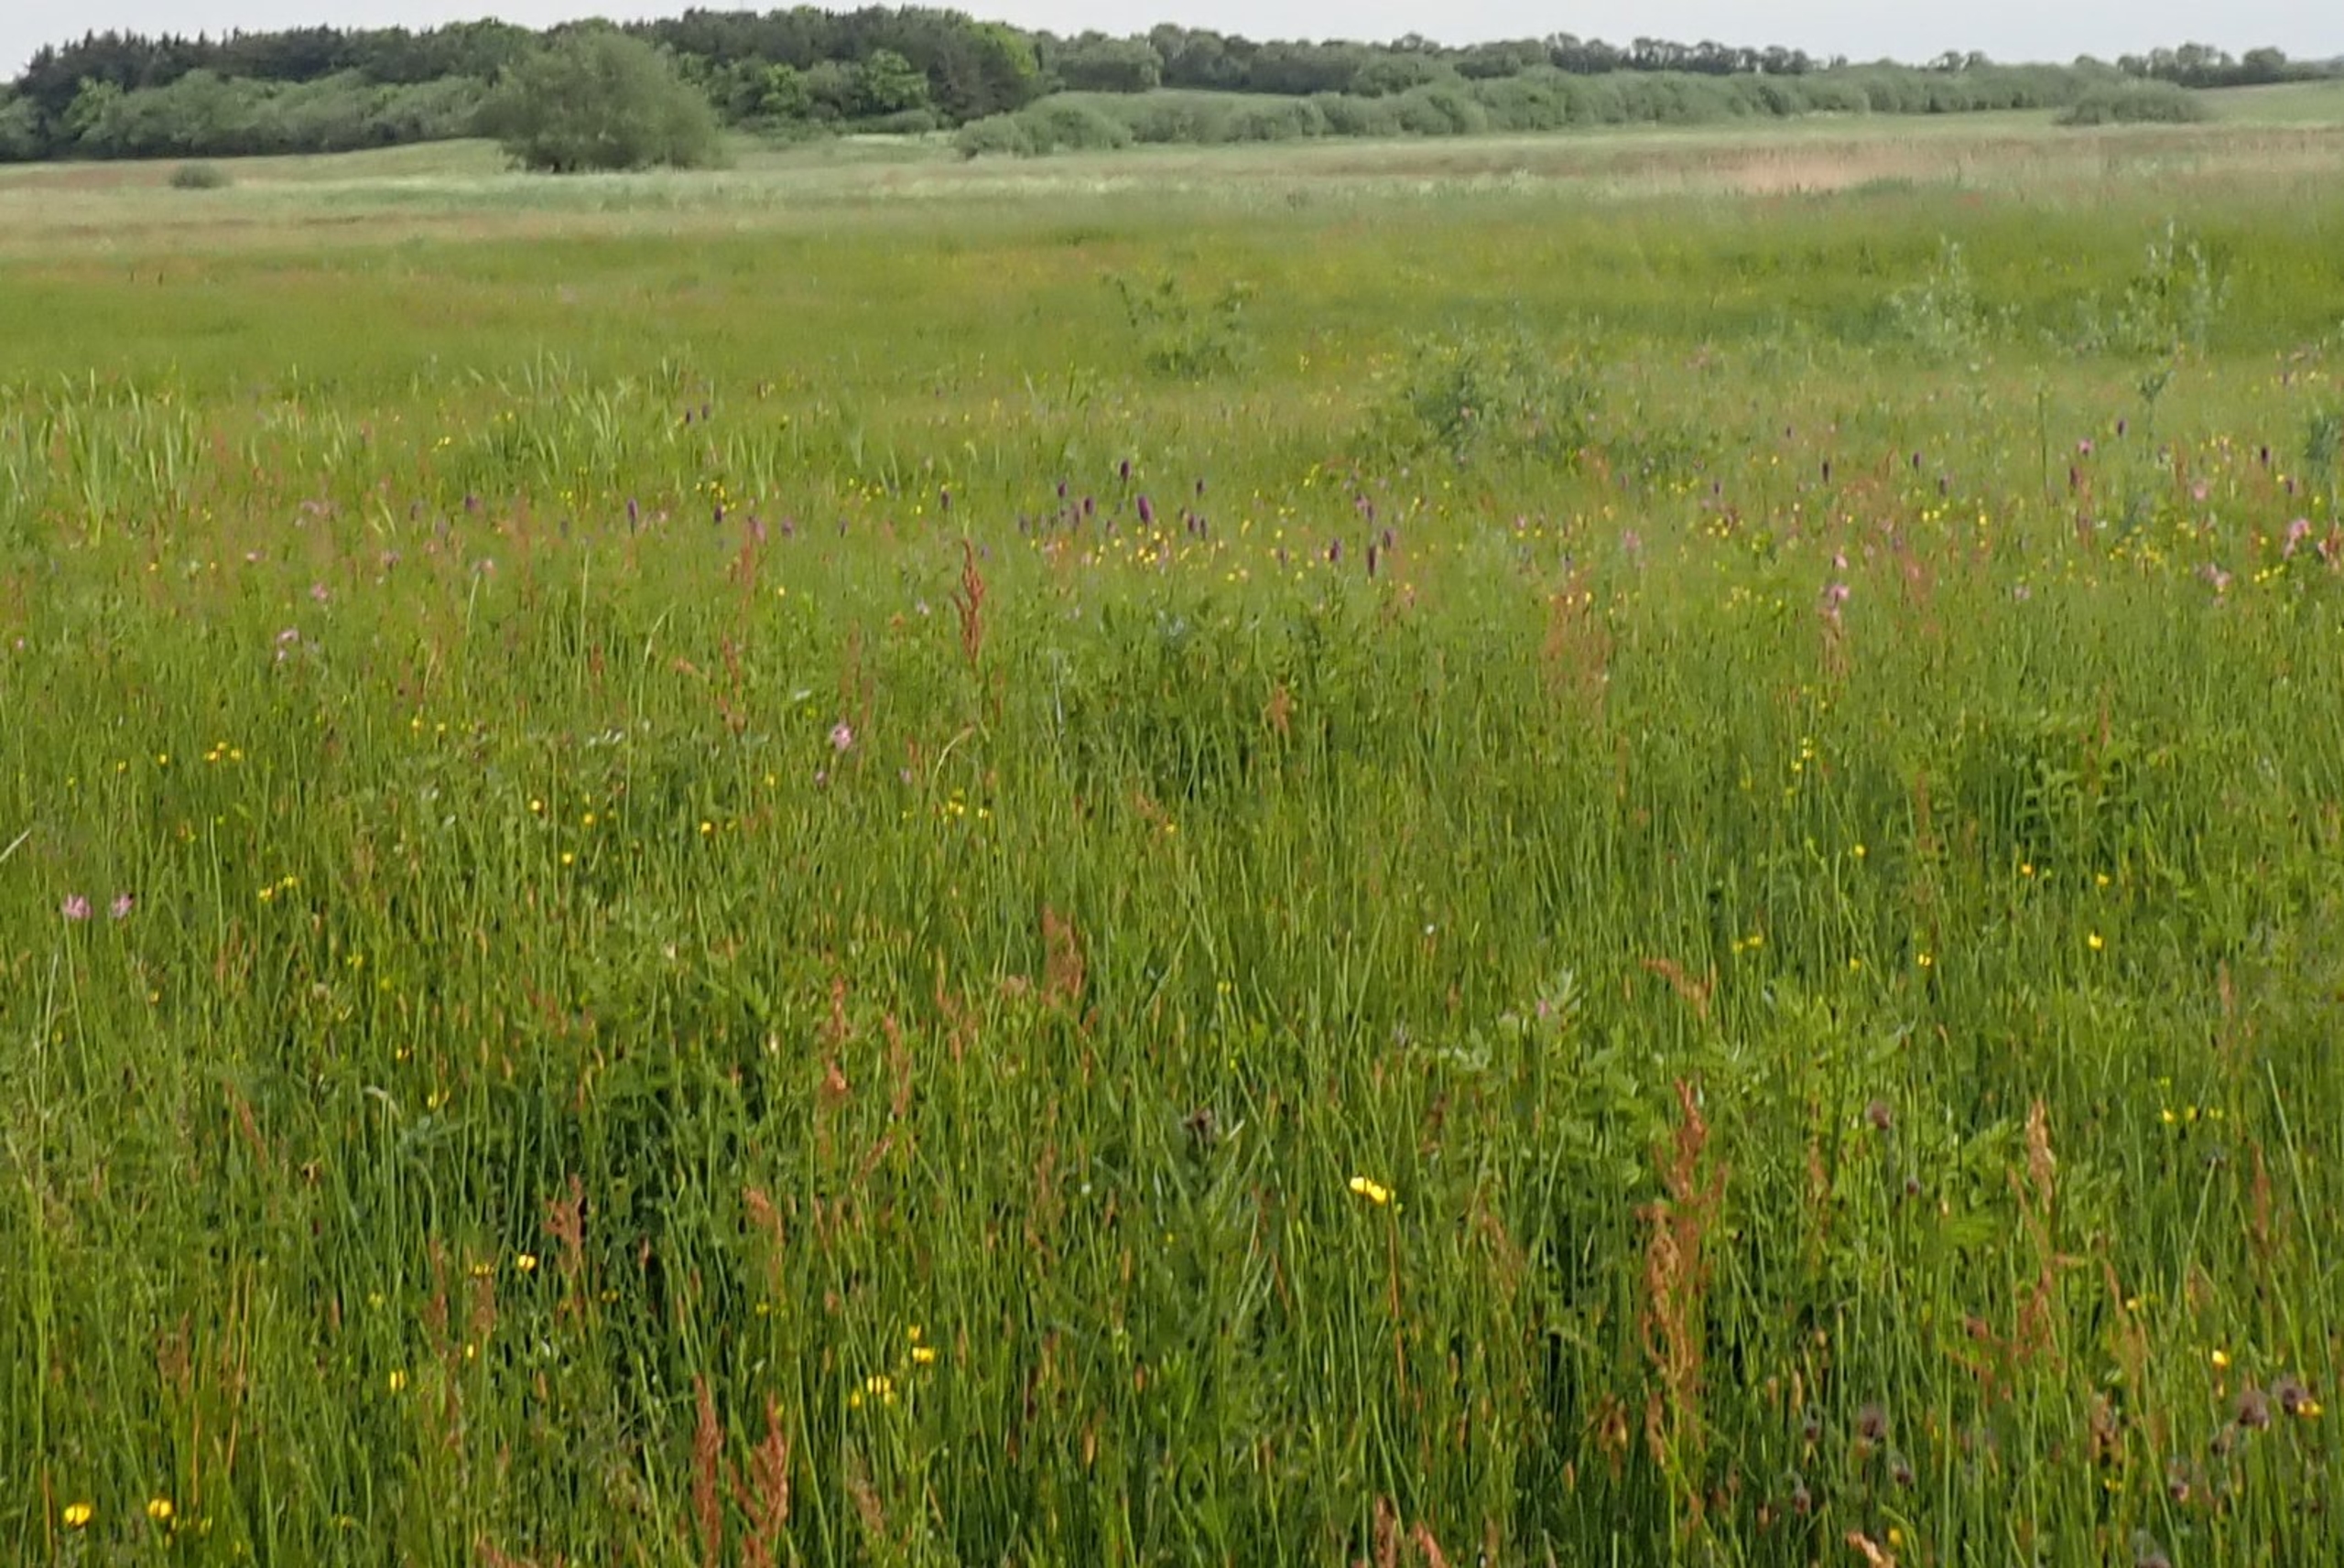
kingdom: Plantae
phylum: Tracheophyta
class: Liliopsida
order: Asparagales
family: Orchidaceae
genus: Dactylorhiza
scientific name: Dactylorhiza majalis
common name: Maj-gøgeurt
